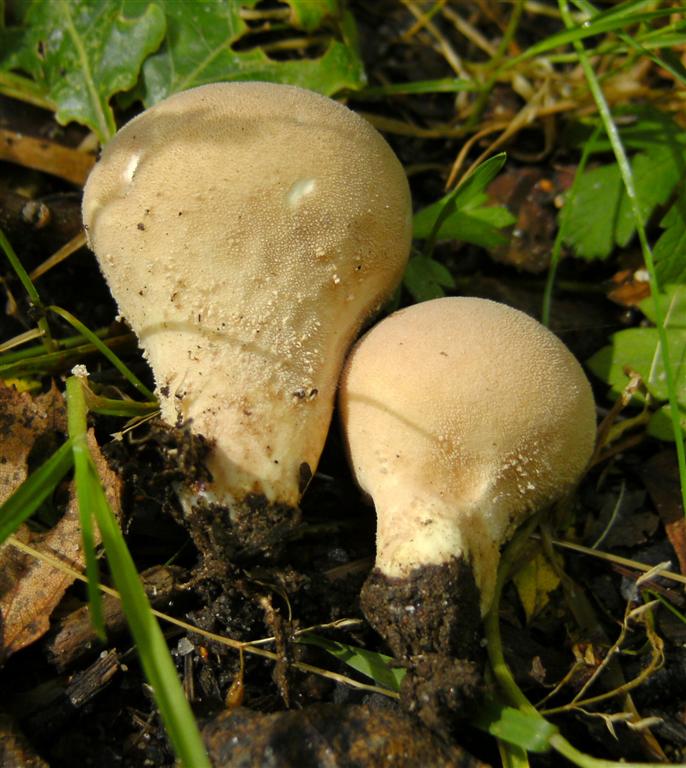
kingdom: Fungi
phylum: Basidiomycota
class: Agaricomycetes
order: Agaricales
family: Lycoperdaceae
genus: Lycoperdon
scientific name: Lycoperdon molle
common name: skov-støvbold
